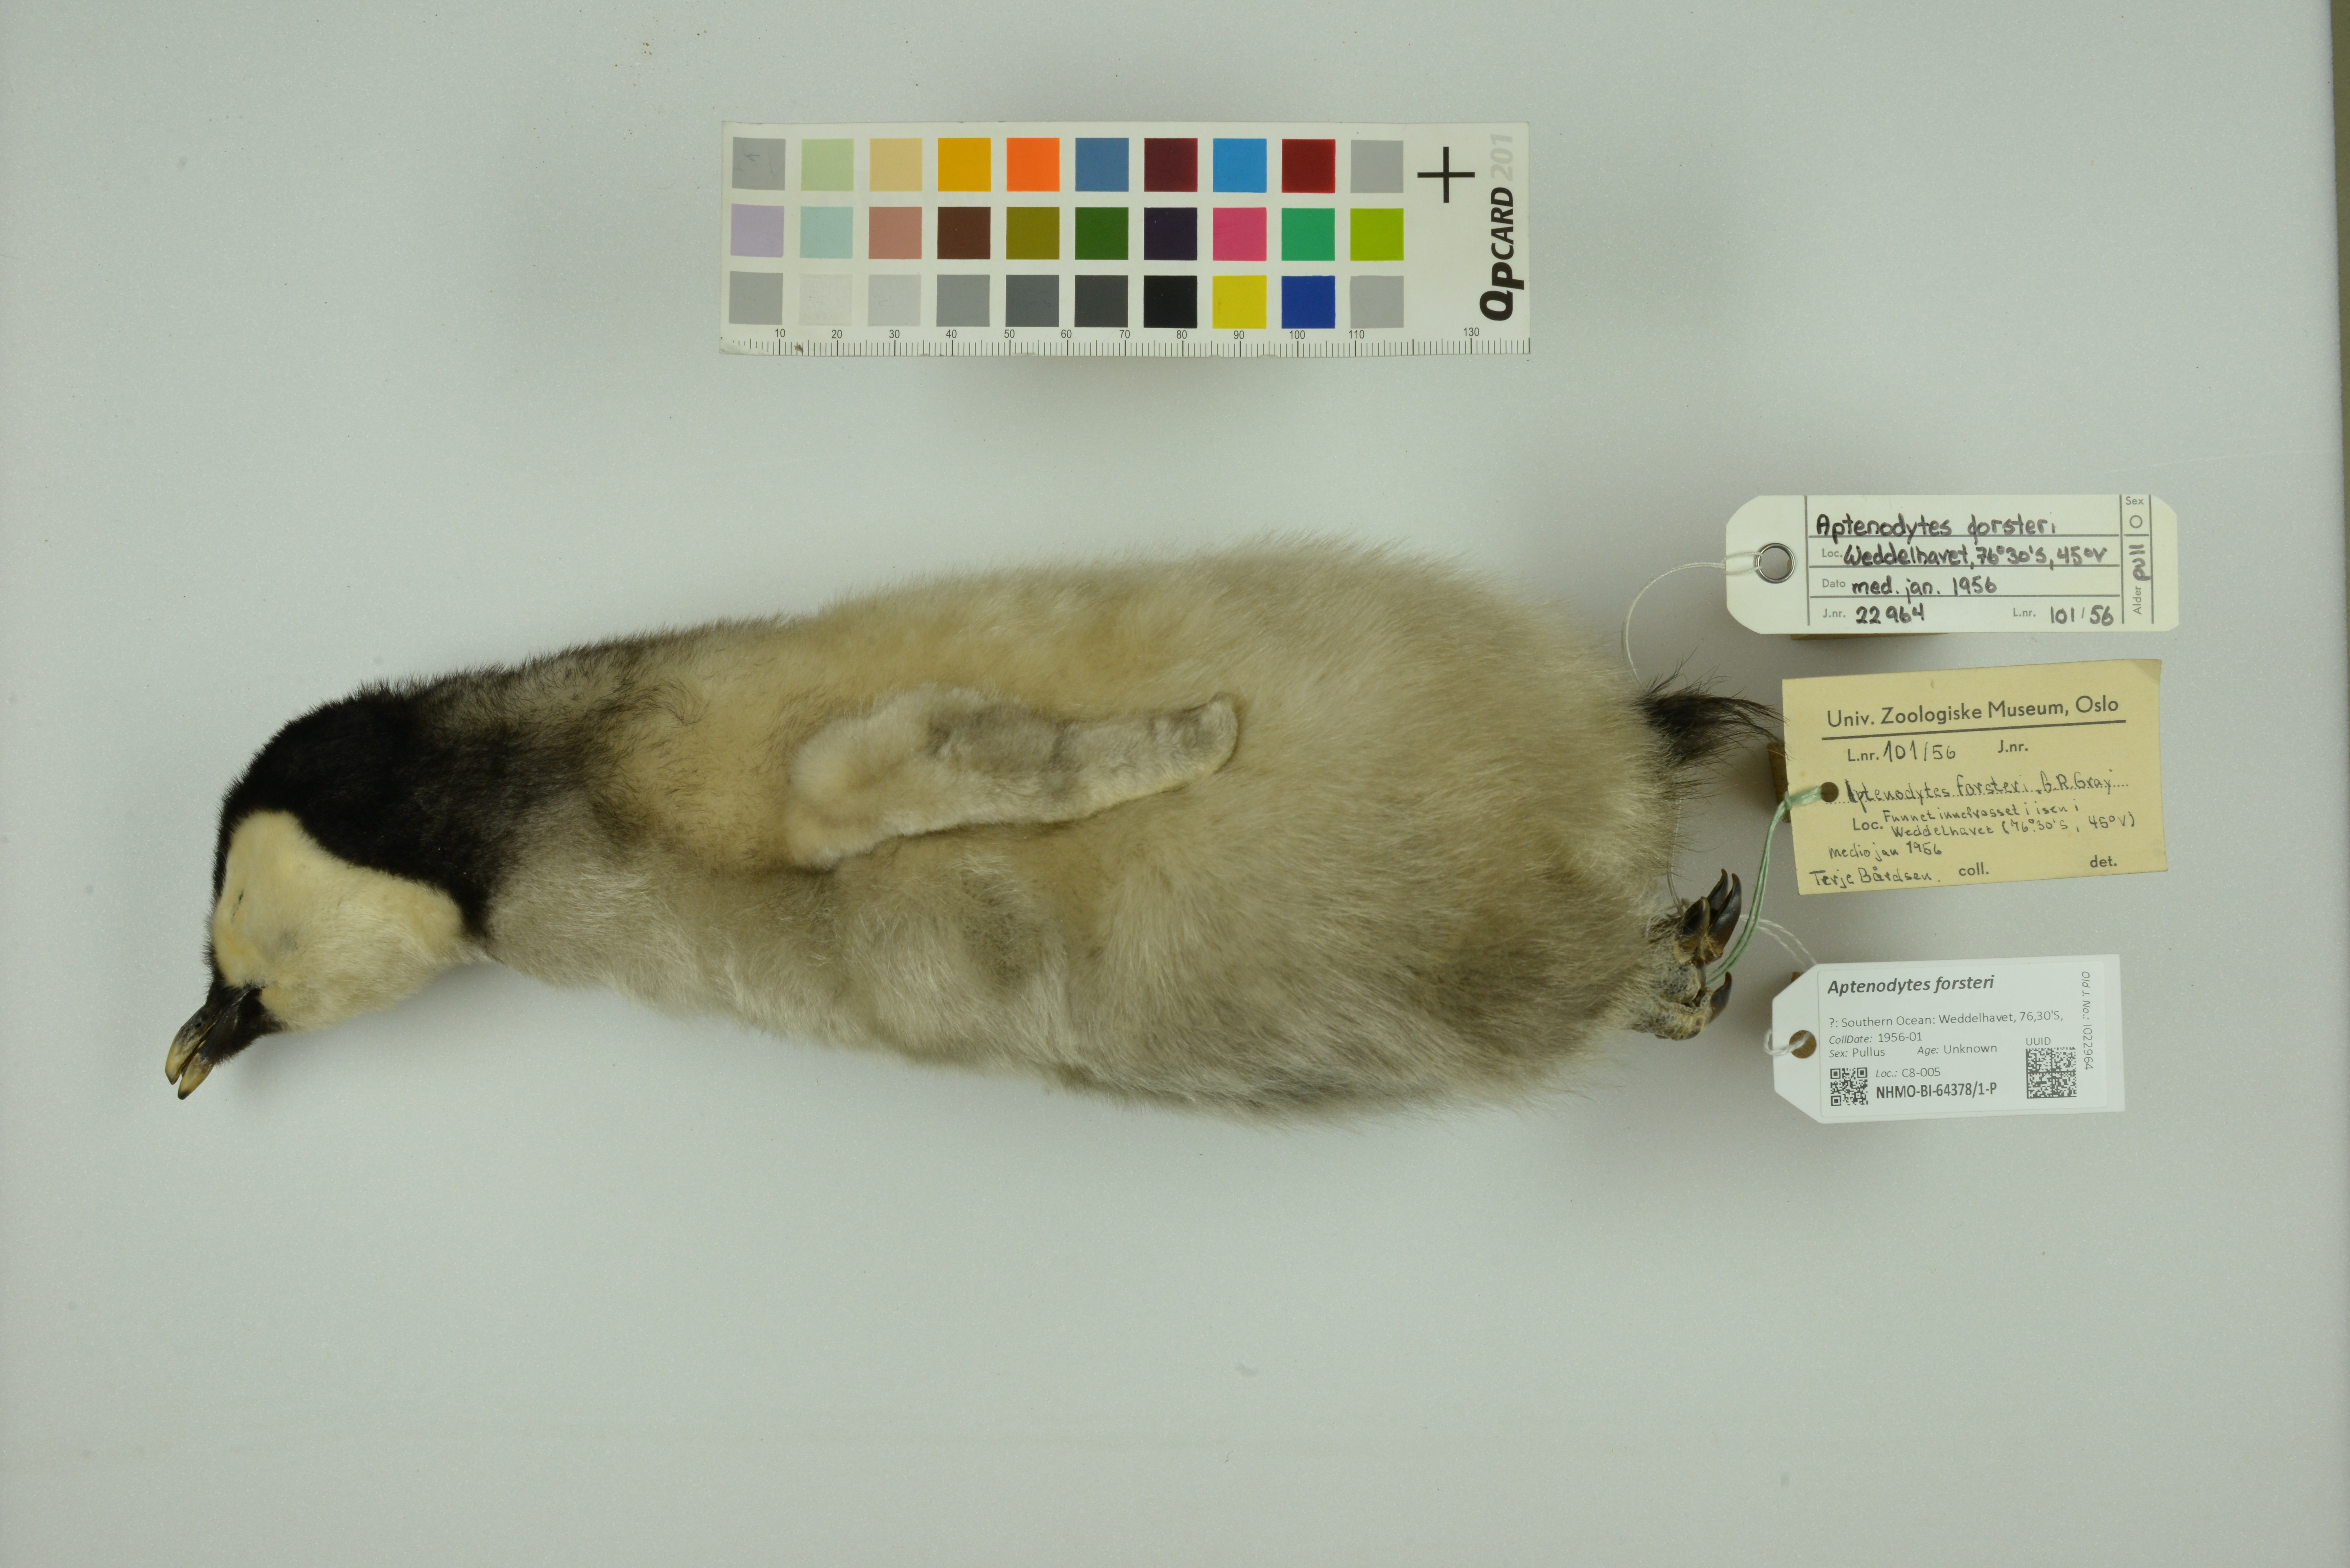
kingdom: Animalia
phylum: Chordata
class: Aves
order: Sphenisciformes
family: Spheniscidae
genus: Aptenodytes
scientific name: Aptenodytes forsteri
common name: Emperor penguin
